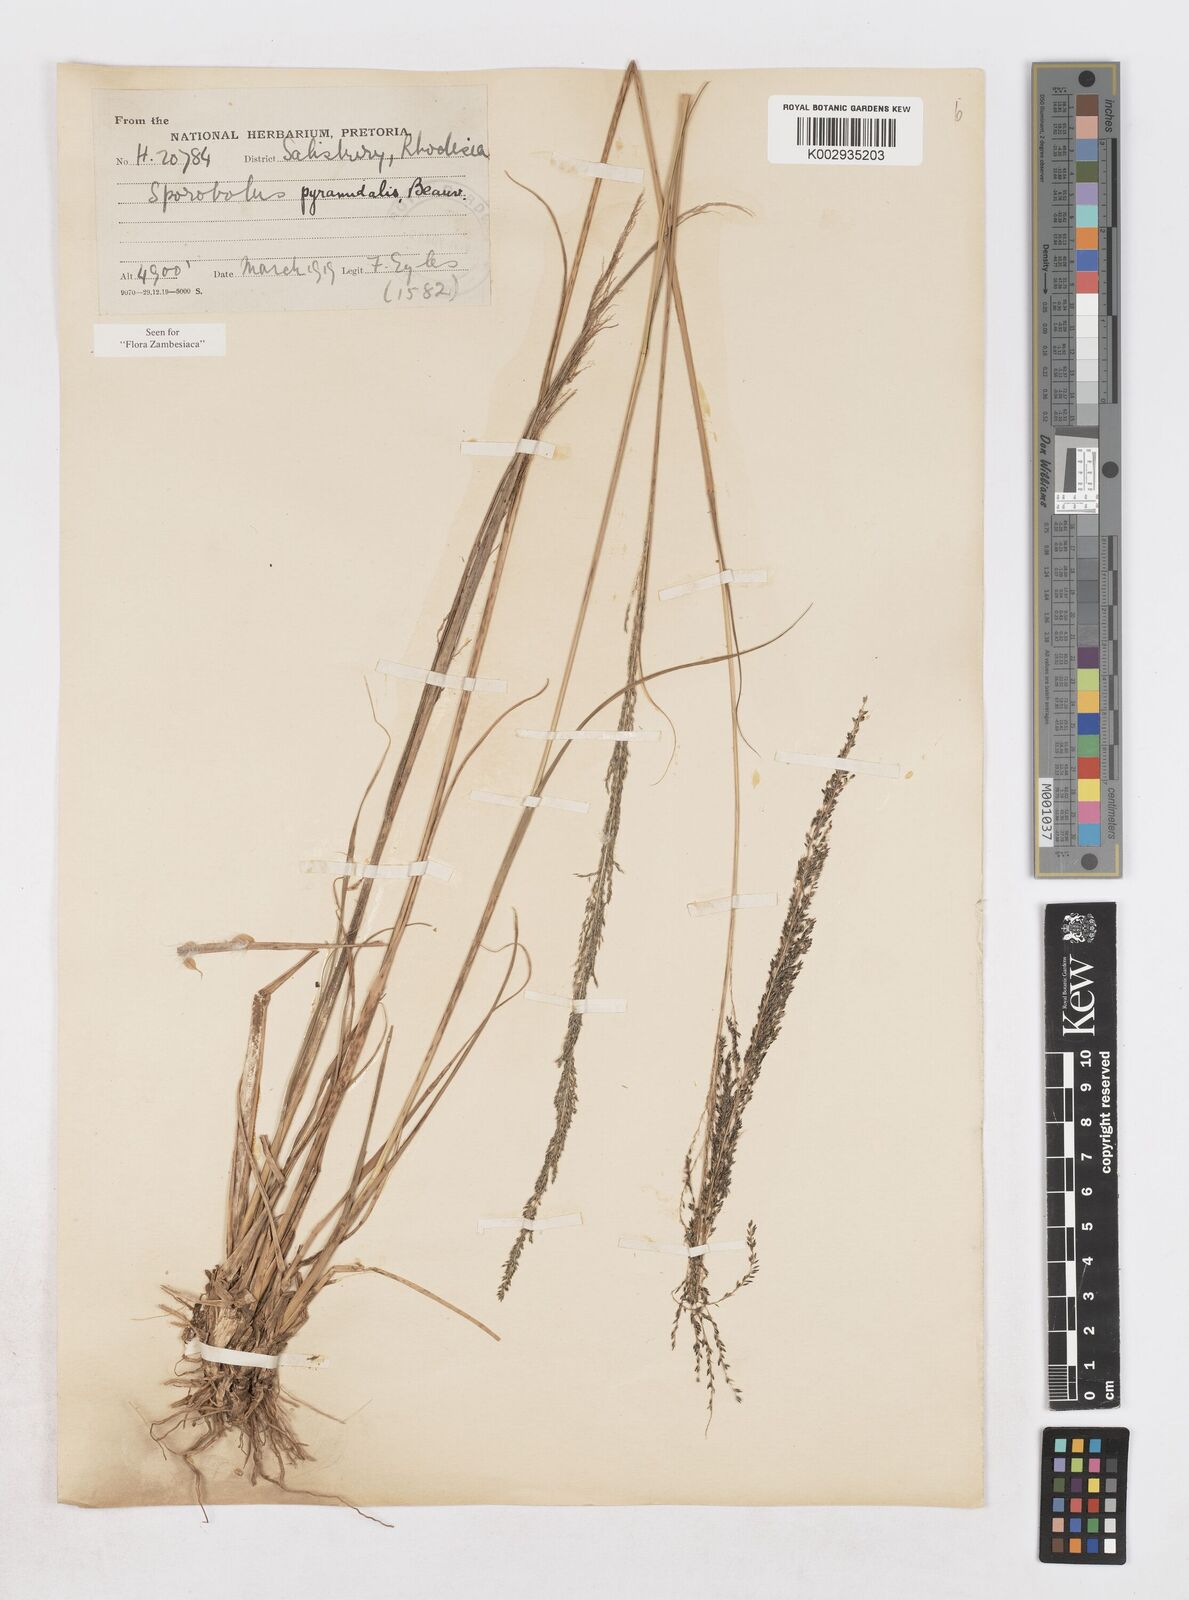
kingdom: Plantae
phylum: Tracheophyta
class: Liliopsida
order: Poales
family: Poaceae
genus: Sporobolus
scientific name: Sporobolus pyramidalis
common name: West indian dropseed
